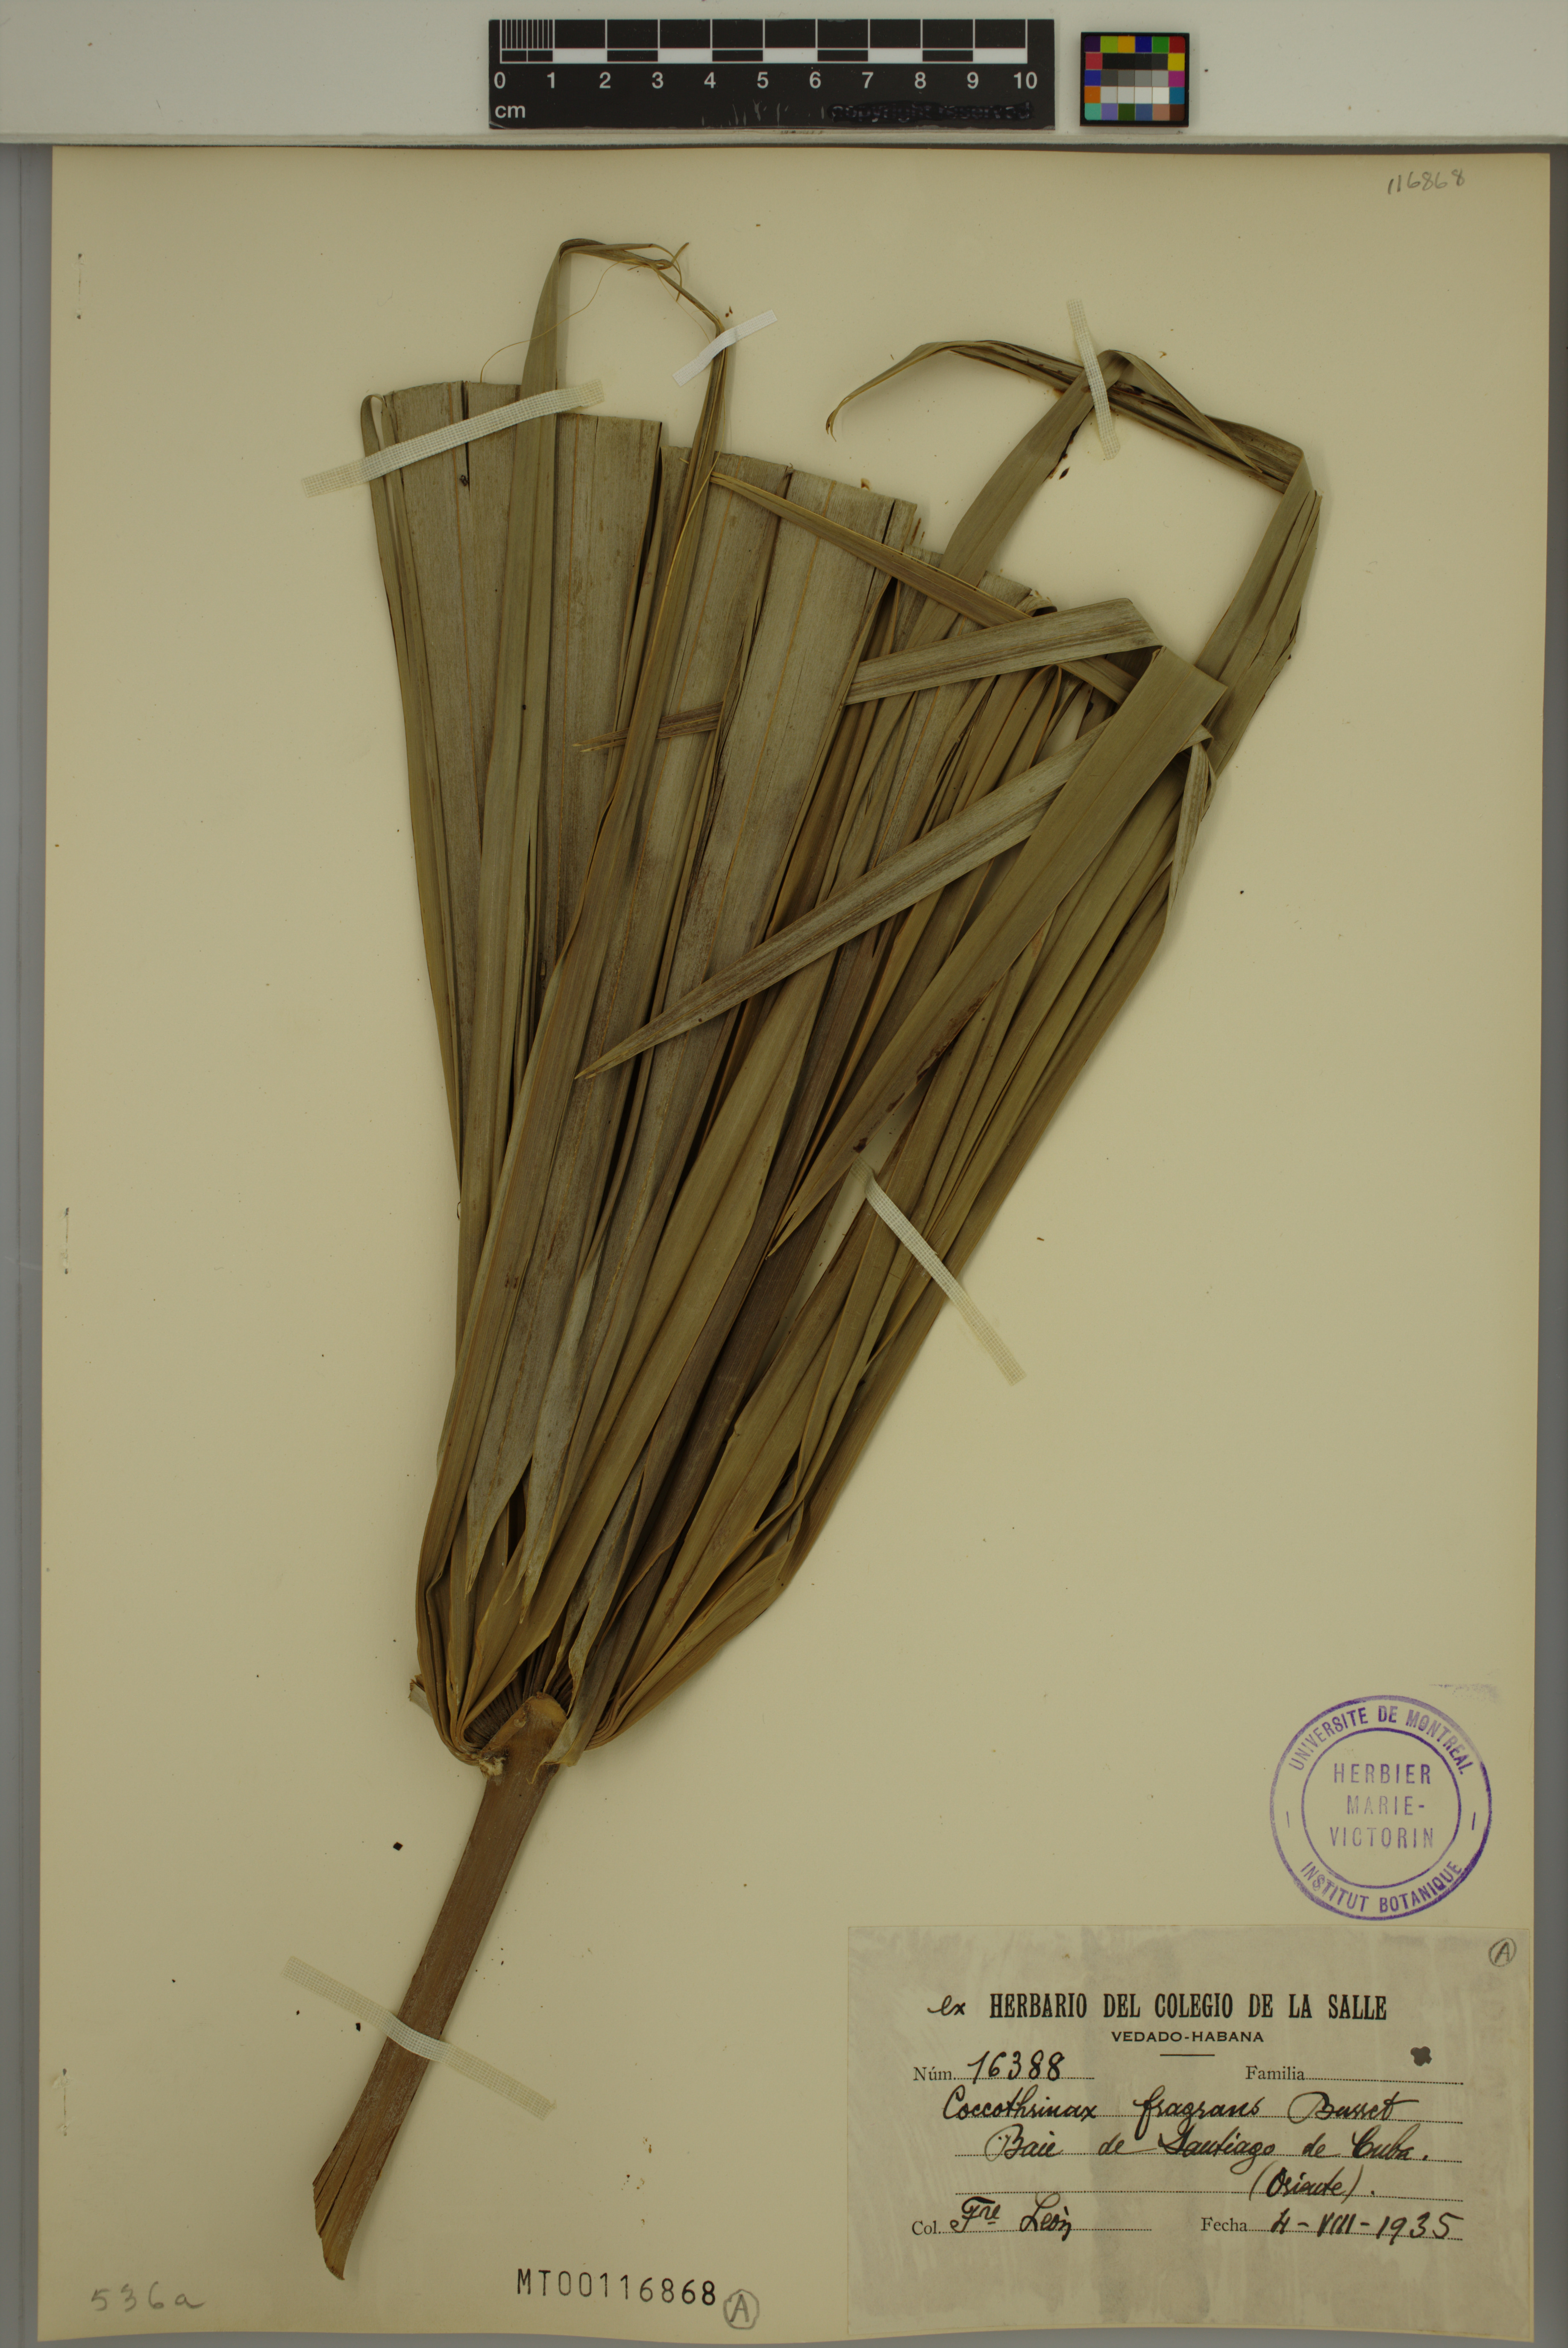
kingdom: Plantae
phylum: Tracheophyta
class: Liliopsida
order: Arecales
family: Arecaceae
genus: Coccothrinax
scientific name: Coccothrinax fragrans
